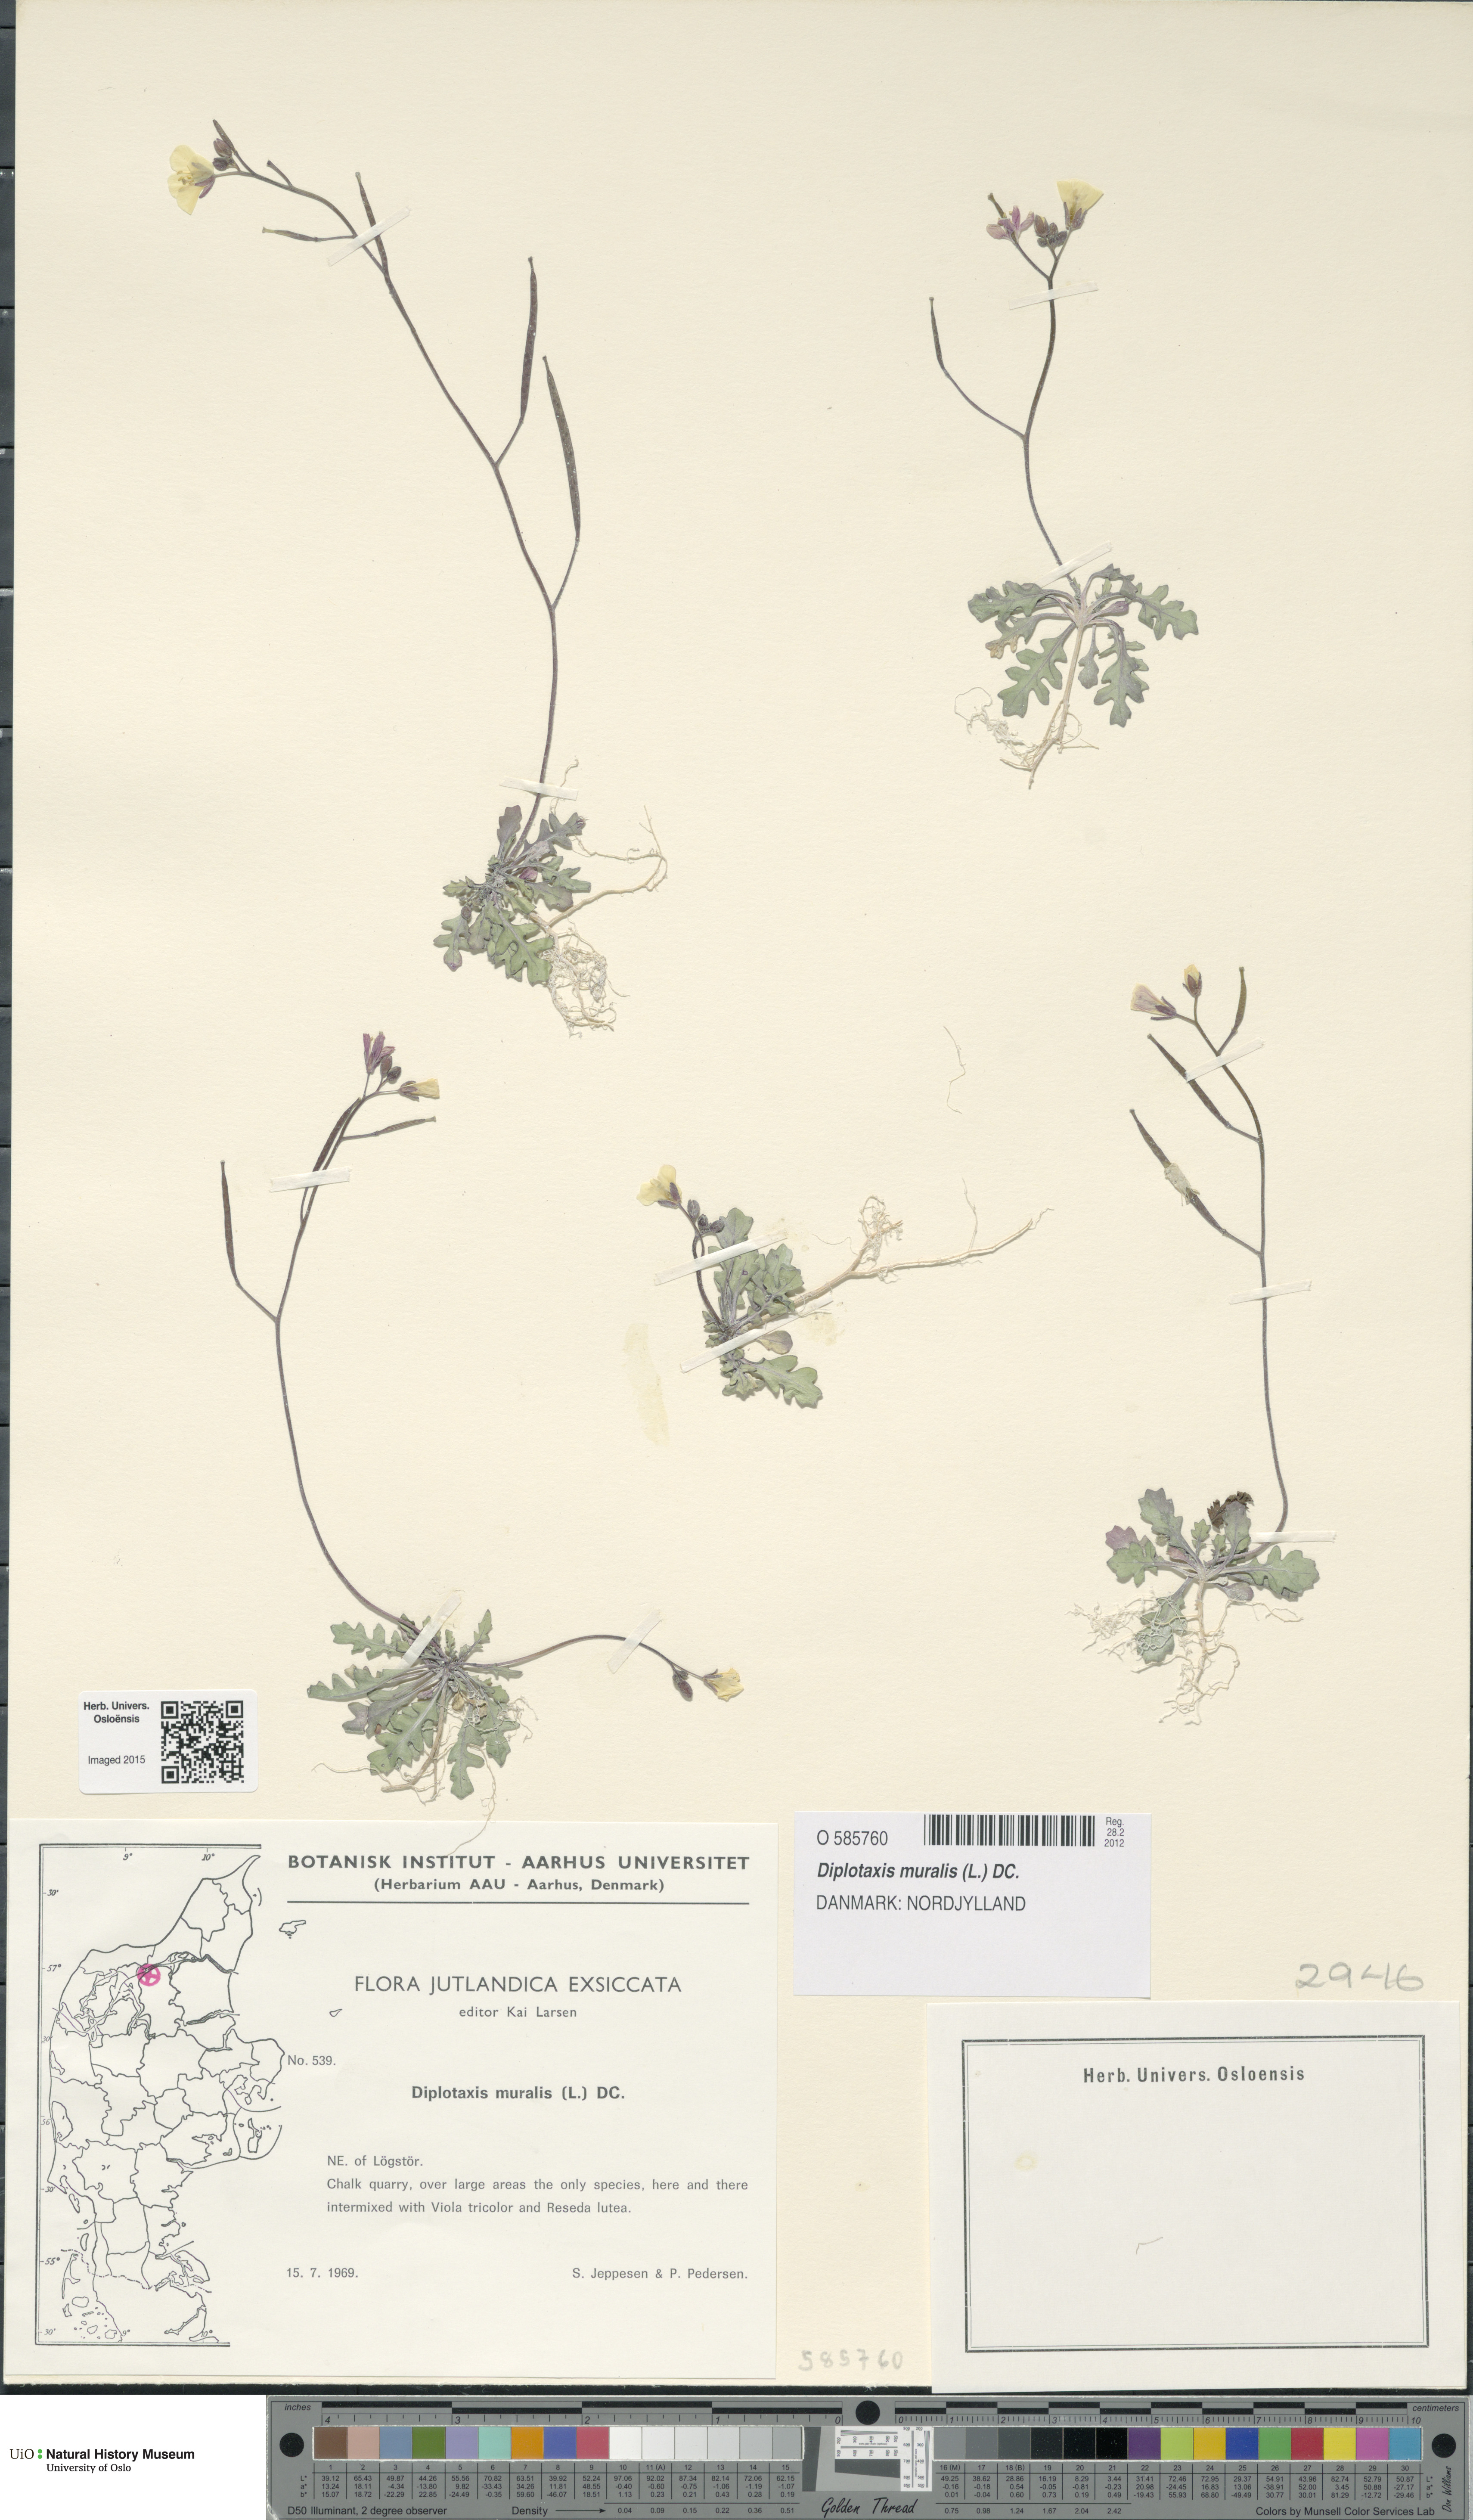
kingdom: Plantae
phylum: Tracheophyta
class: Magnoliopsida
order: Brassicales
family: Brassicaceae
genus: Diplotaxis
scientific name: Diplotaxis muralis
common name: Annual wall-rocket
